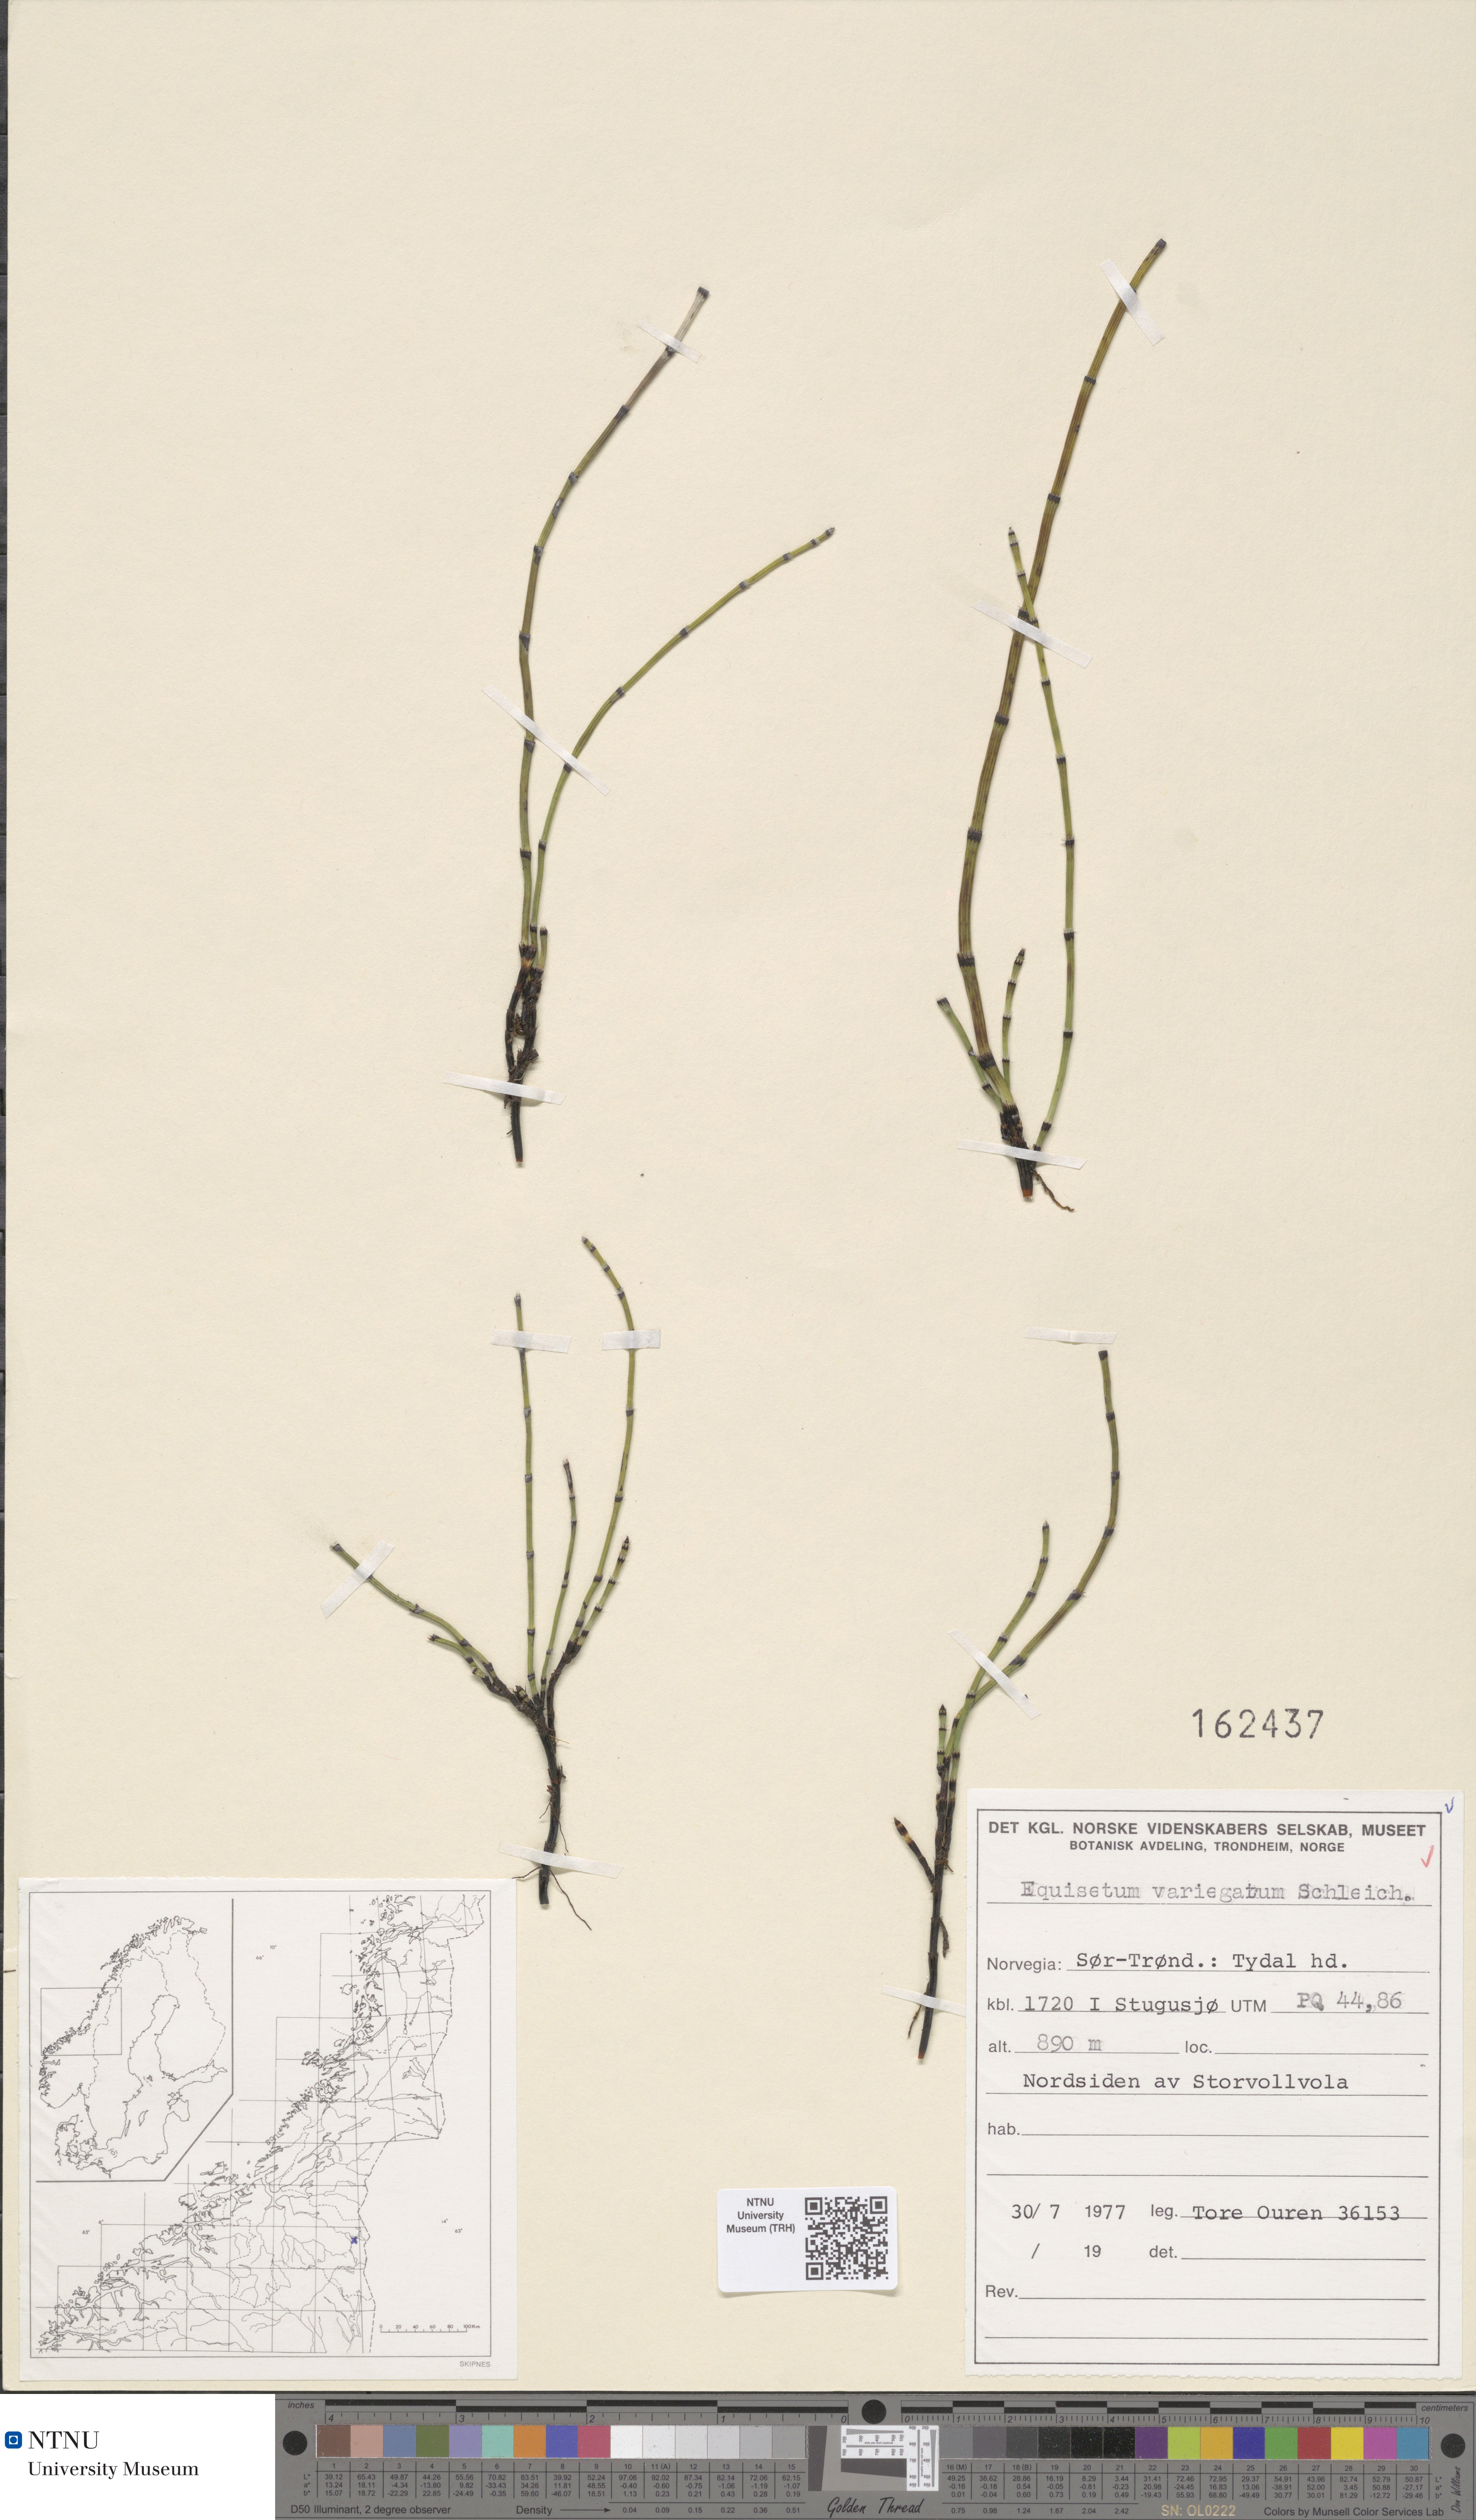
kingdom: Plantae
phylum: Tracheophyta
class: Polypodiopsida
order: Equisetales
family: Equisetaceae
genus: Equisetum
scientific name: Equisetum variegatum
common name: Variegated horsetail
